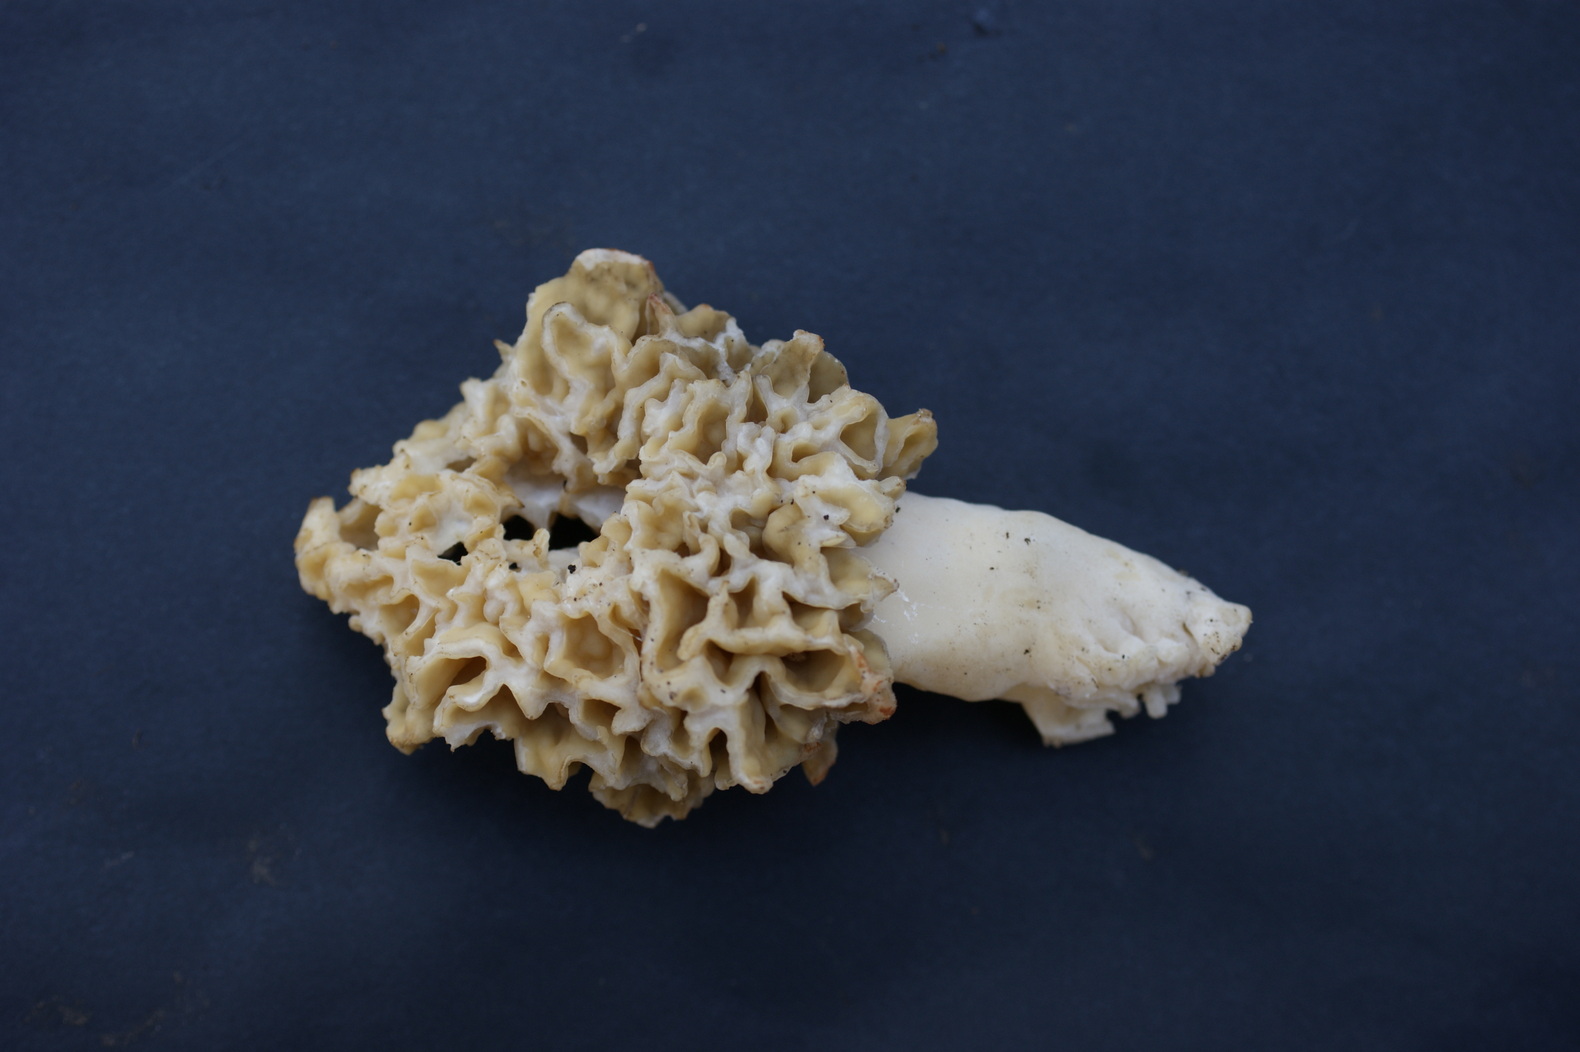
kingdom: Fungi
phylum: Ascomycota
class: Pezizomycetes
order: Pezizales
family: Morchellaceae
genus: Morchella
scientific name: Morchella esculenta
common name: spiselig morkel
